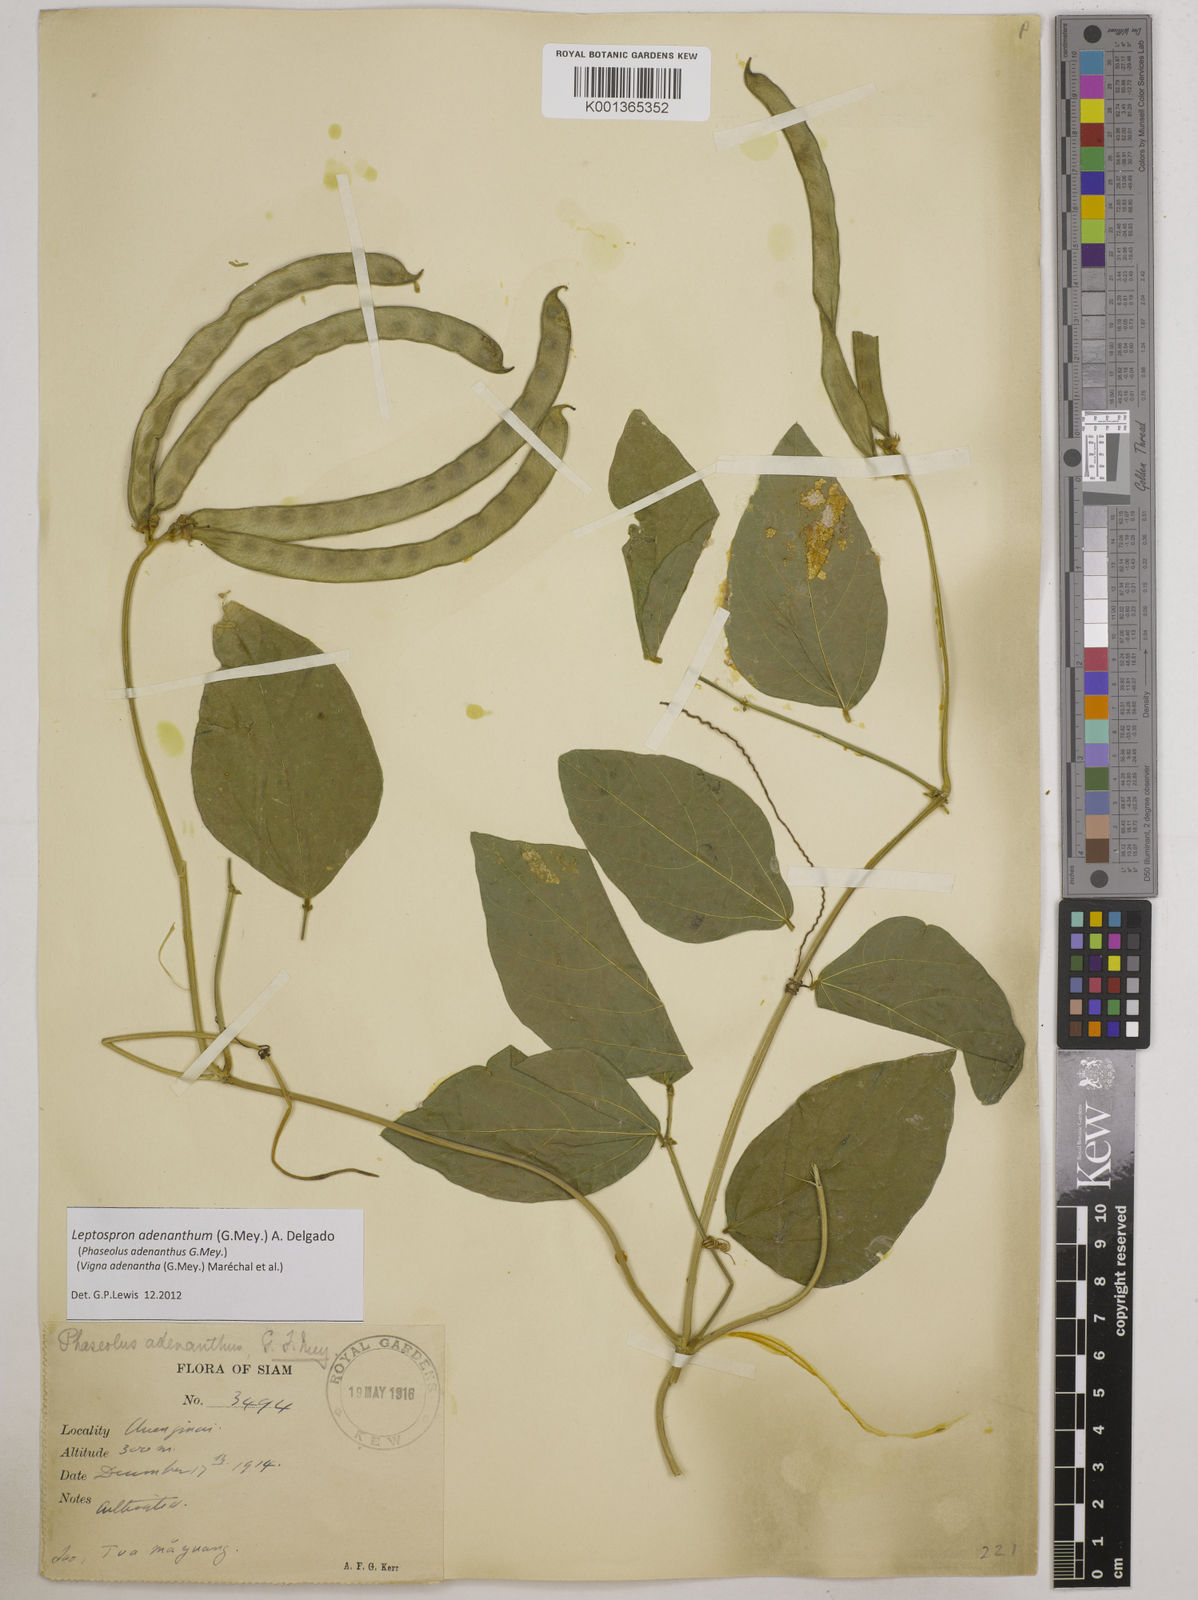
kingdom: Plantae
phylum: Tracheophyta
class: Magnoliopsida
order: Fabales
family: Fabaceae
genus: Leptospron
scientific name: Leptospron adenanthum
